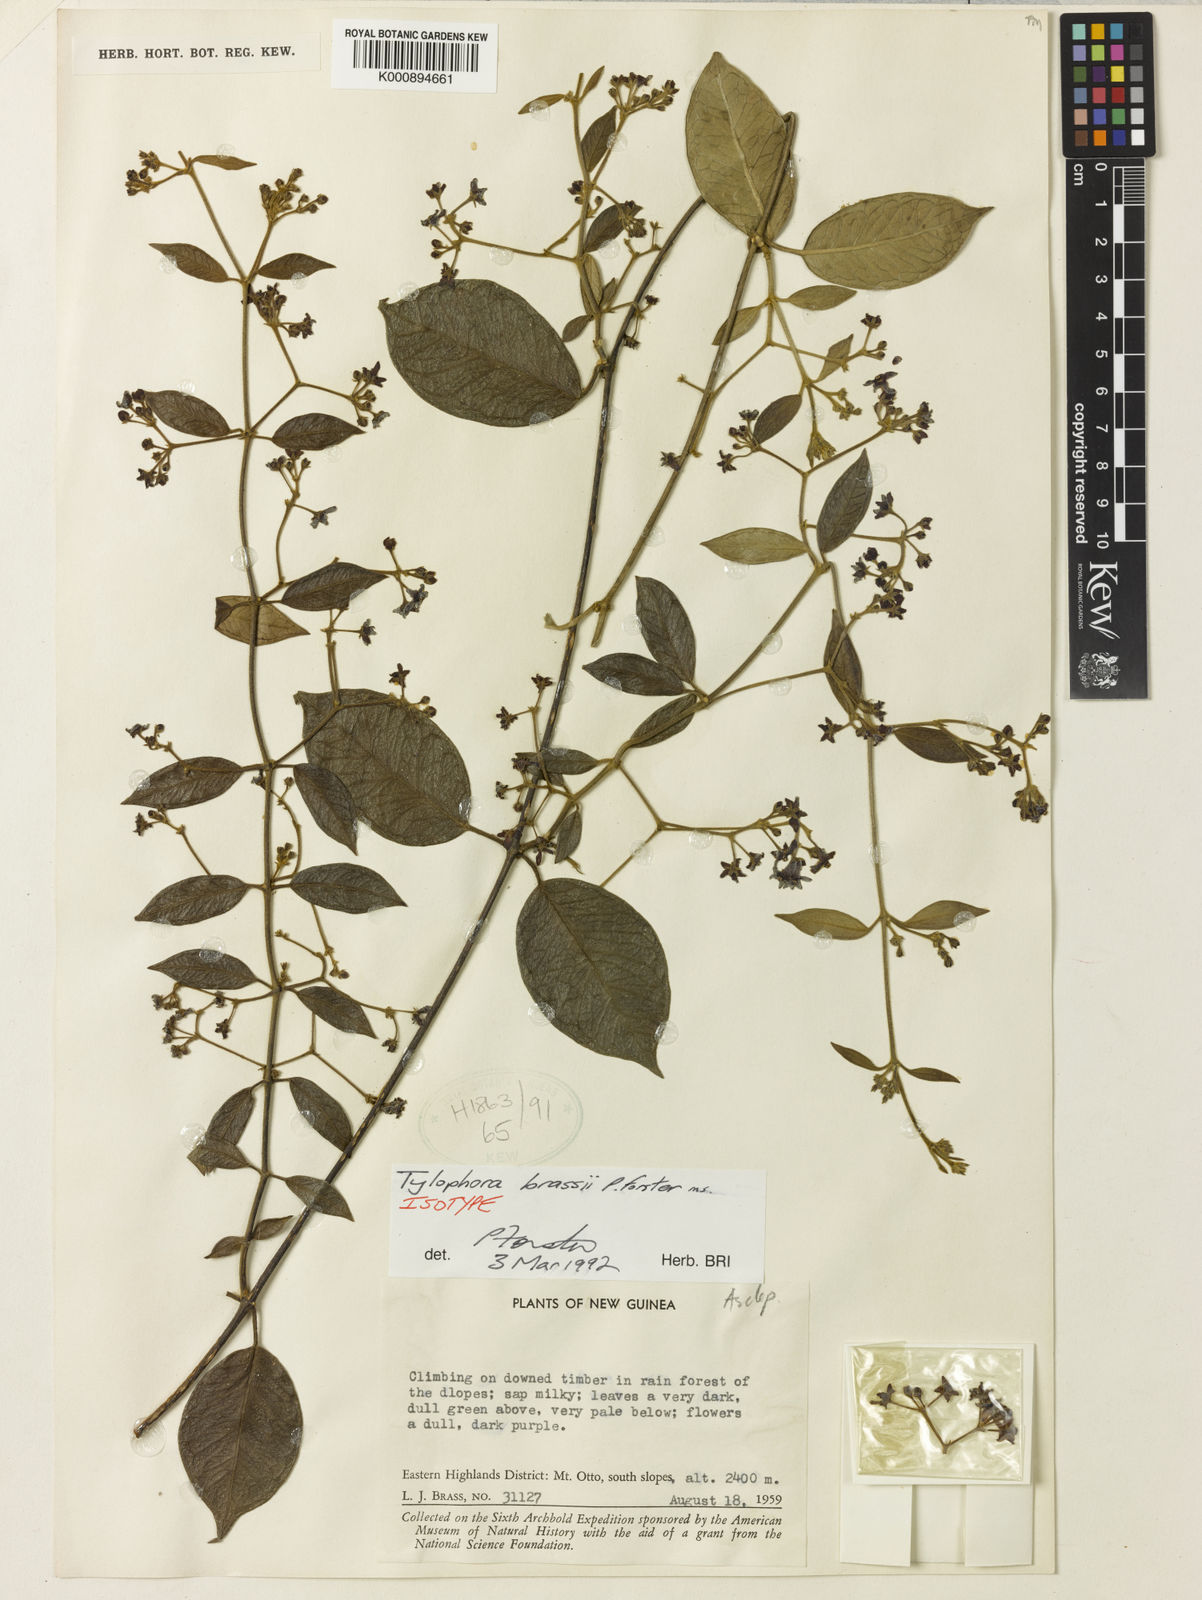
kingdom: Plantae
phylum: Tracheophyta
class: Magnoliopsida
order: Gentianales
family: Apocynaceae
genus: Vincetoxicum
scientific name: Vincetoxicum brassii
